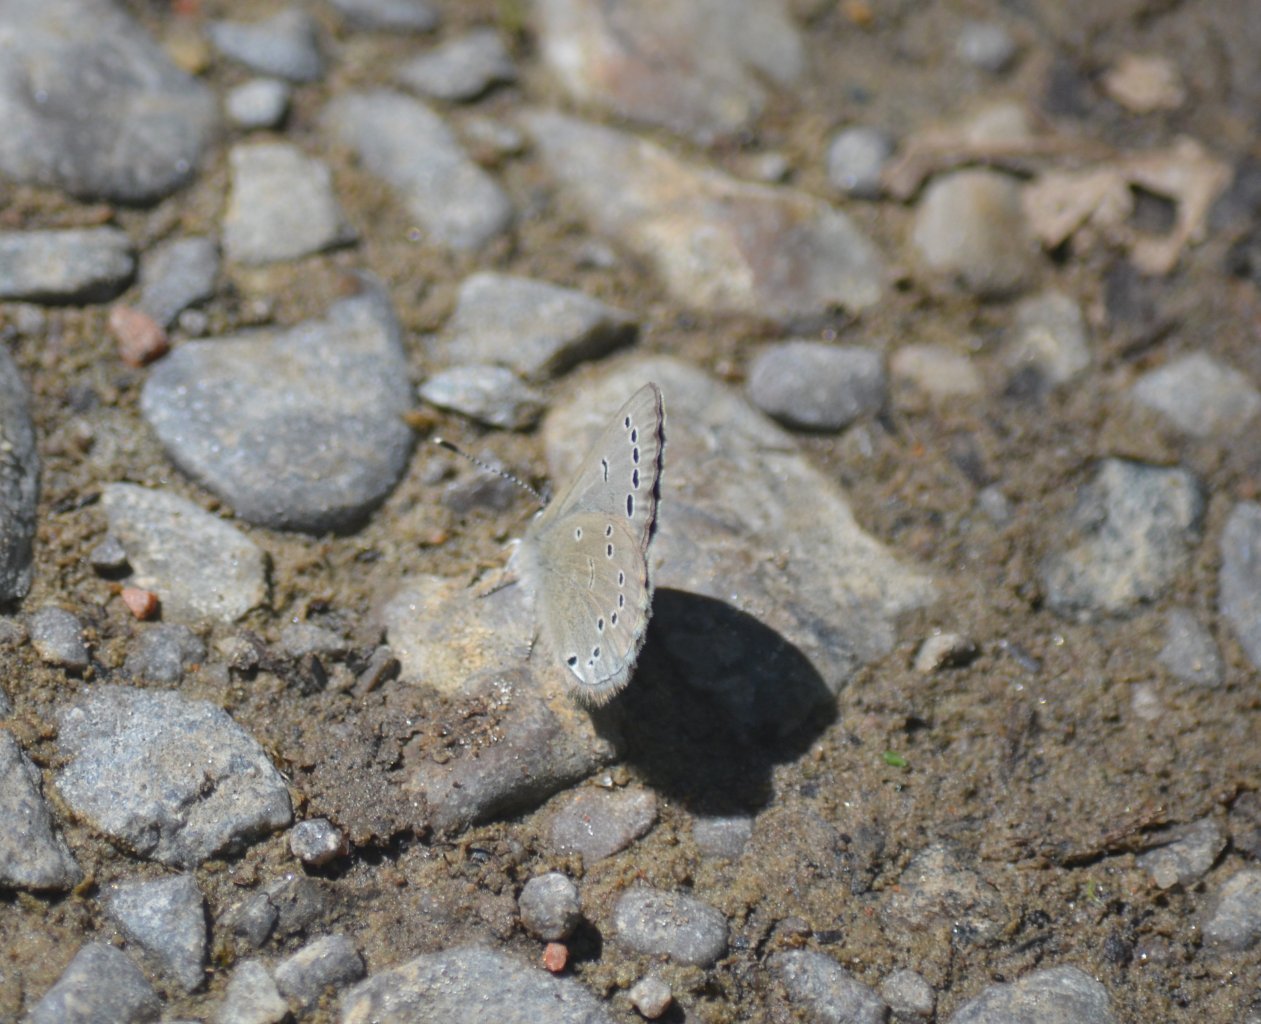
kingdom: Animalia
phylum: Arthropoda
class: Insecta
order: Lepidoptera
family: Lycaenidae
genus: Glaucopsyche
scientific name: Glaucopsyche lygdamus
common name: Silvery Blue
